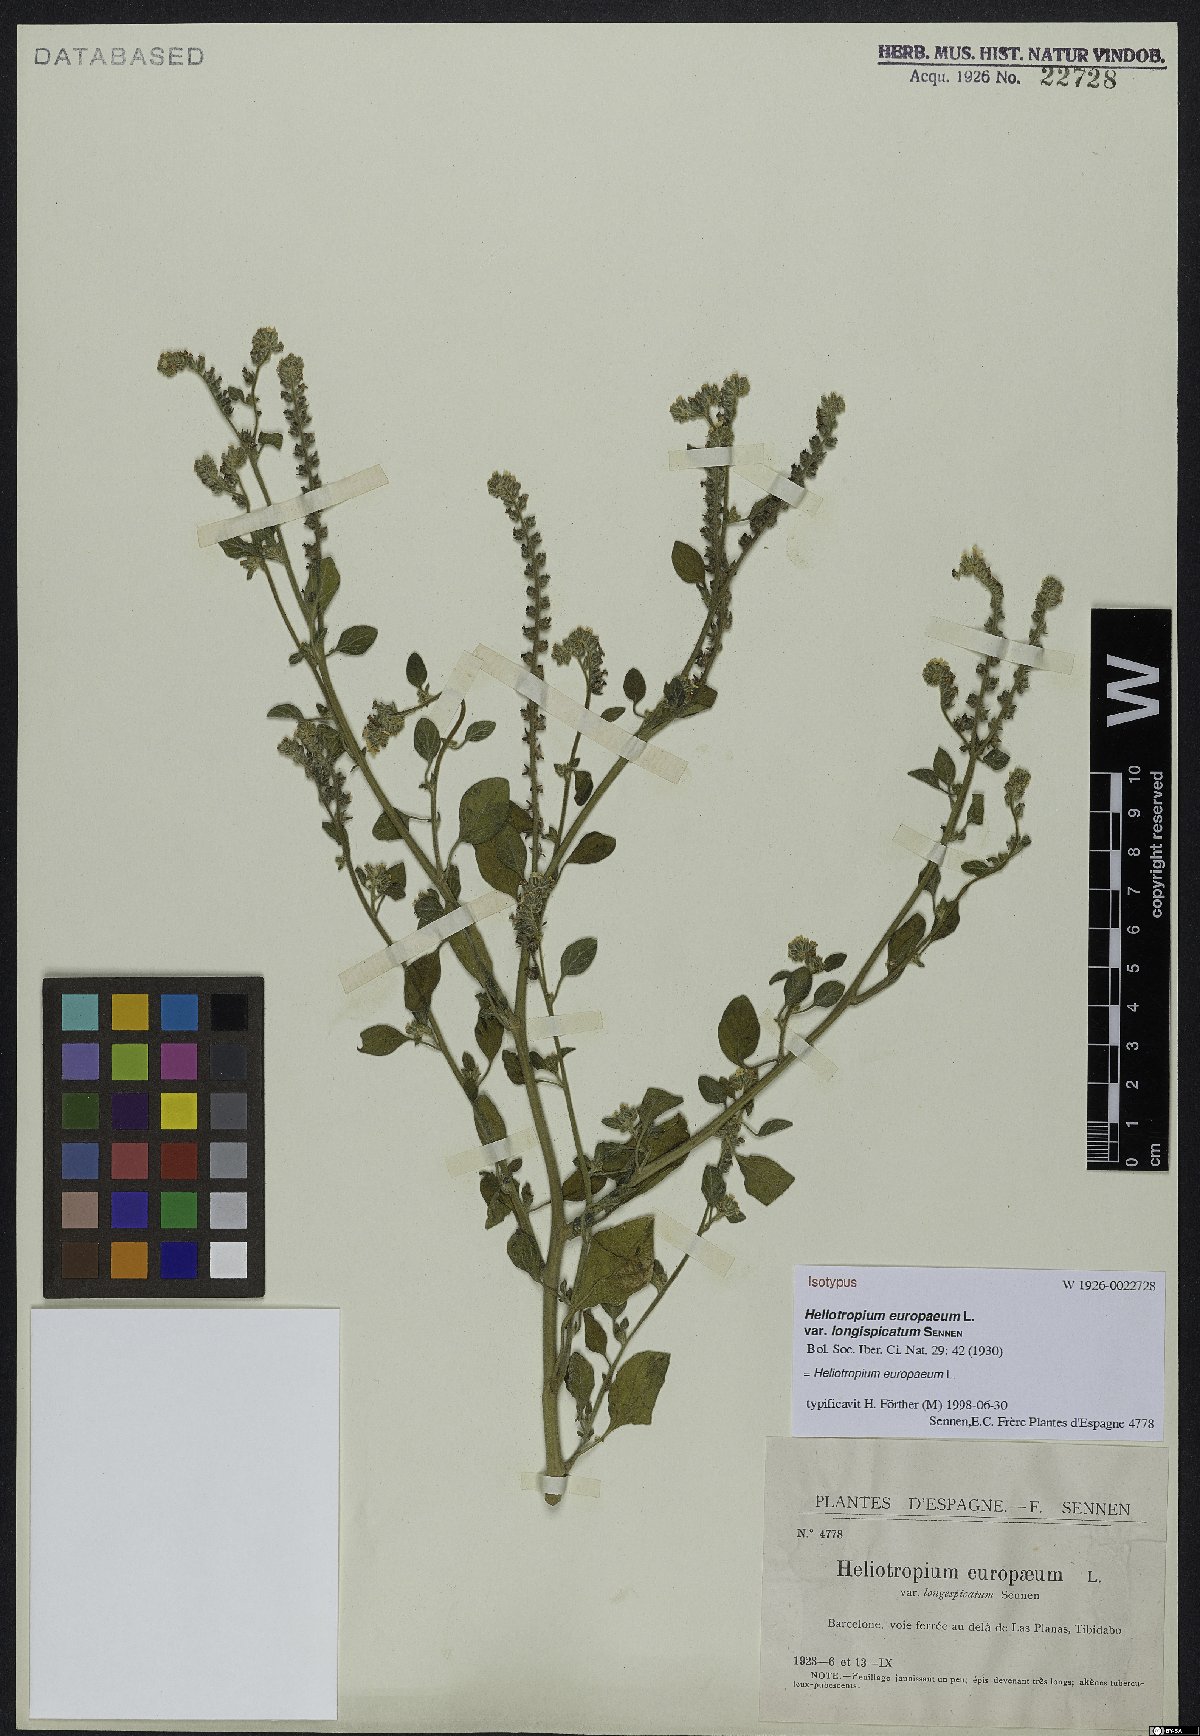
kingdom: Plantae
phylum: Tracheophyta
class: Magnoliopsida
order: Boraginales
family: Heliotropiaceae
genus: Heliotropium
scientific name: Heliotropium europaeum
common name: European heliotrope
